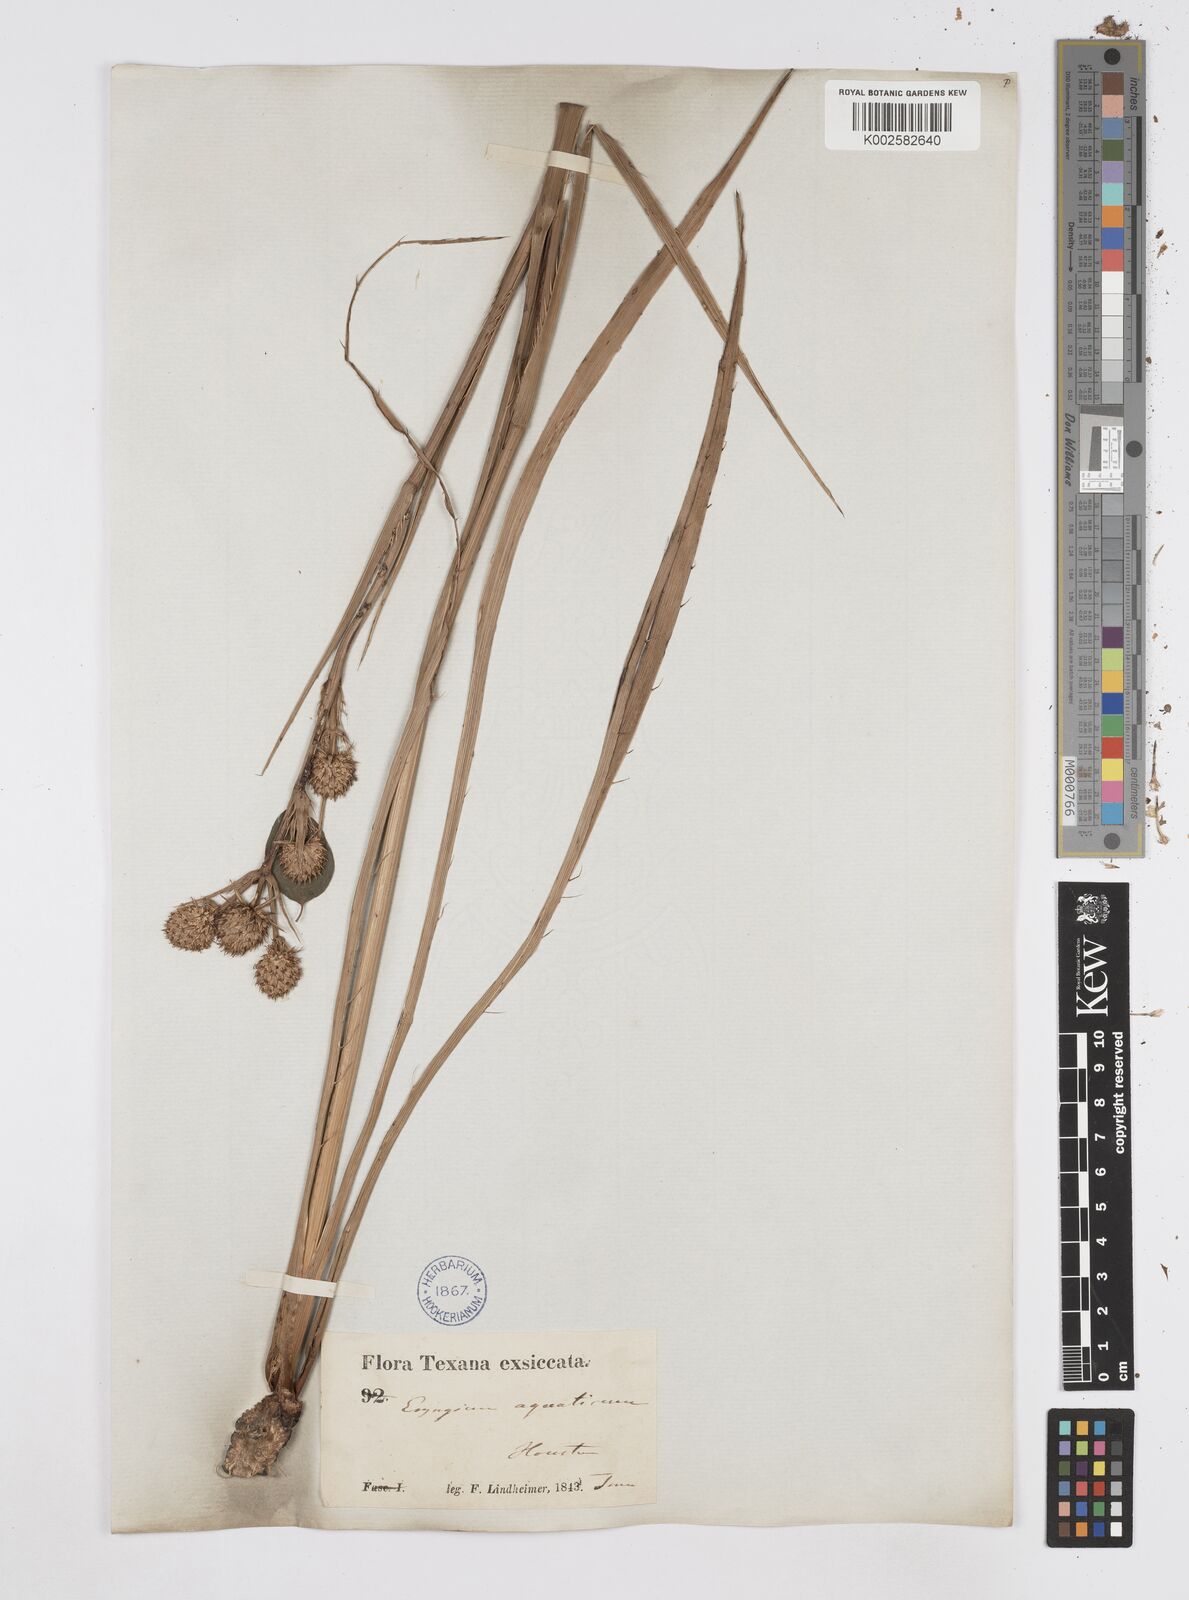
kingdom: Plantae
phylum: Tracheophyta
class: Magnoliopsida
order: Apiales
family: Apiaceae
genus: Eryngium
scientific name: Eryngium yuccifolium
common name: Button eryngo
